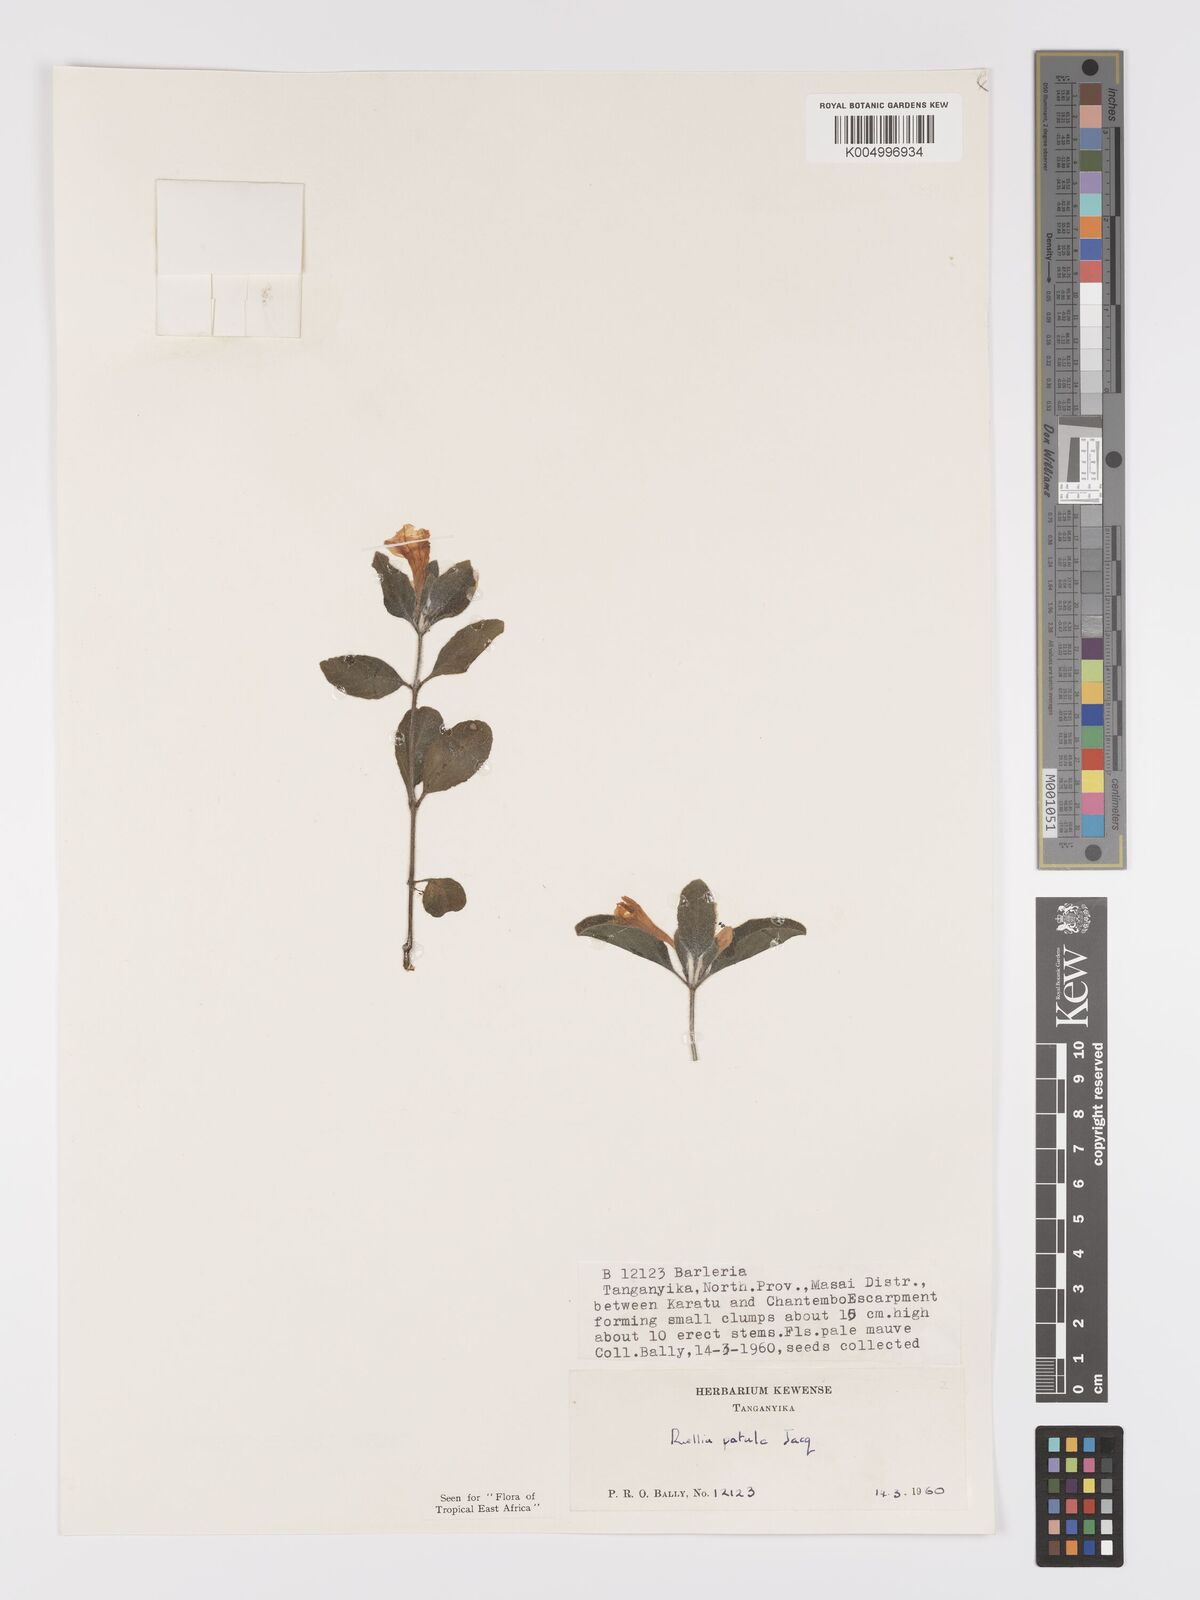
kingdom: Plantae
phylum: Tracheophyta
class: Magnoliopsida
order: Lamiales
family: Acanthaceae
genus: Ruellia
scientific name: Ruellia patula
